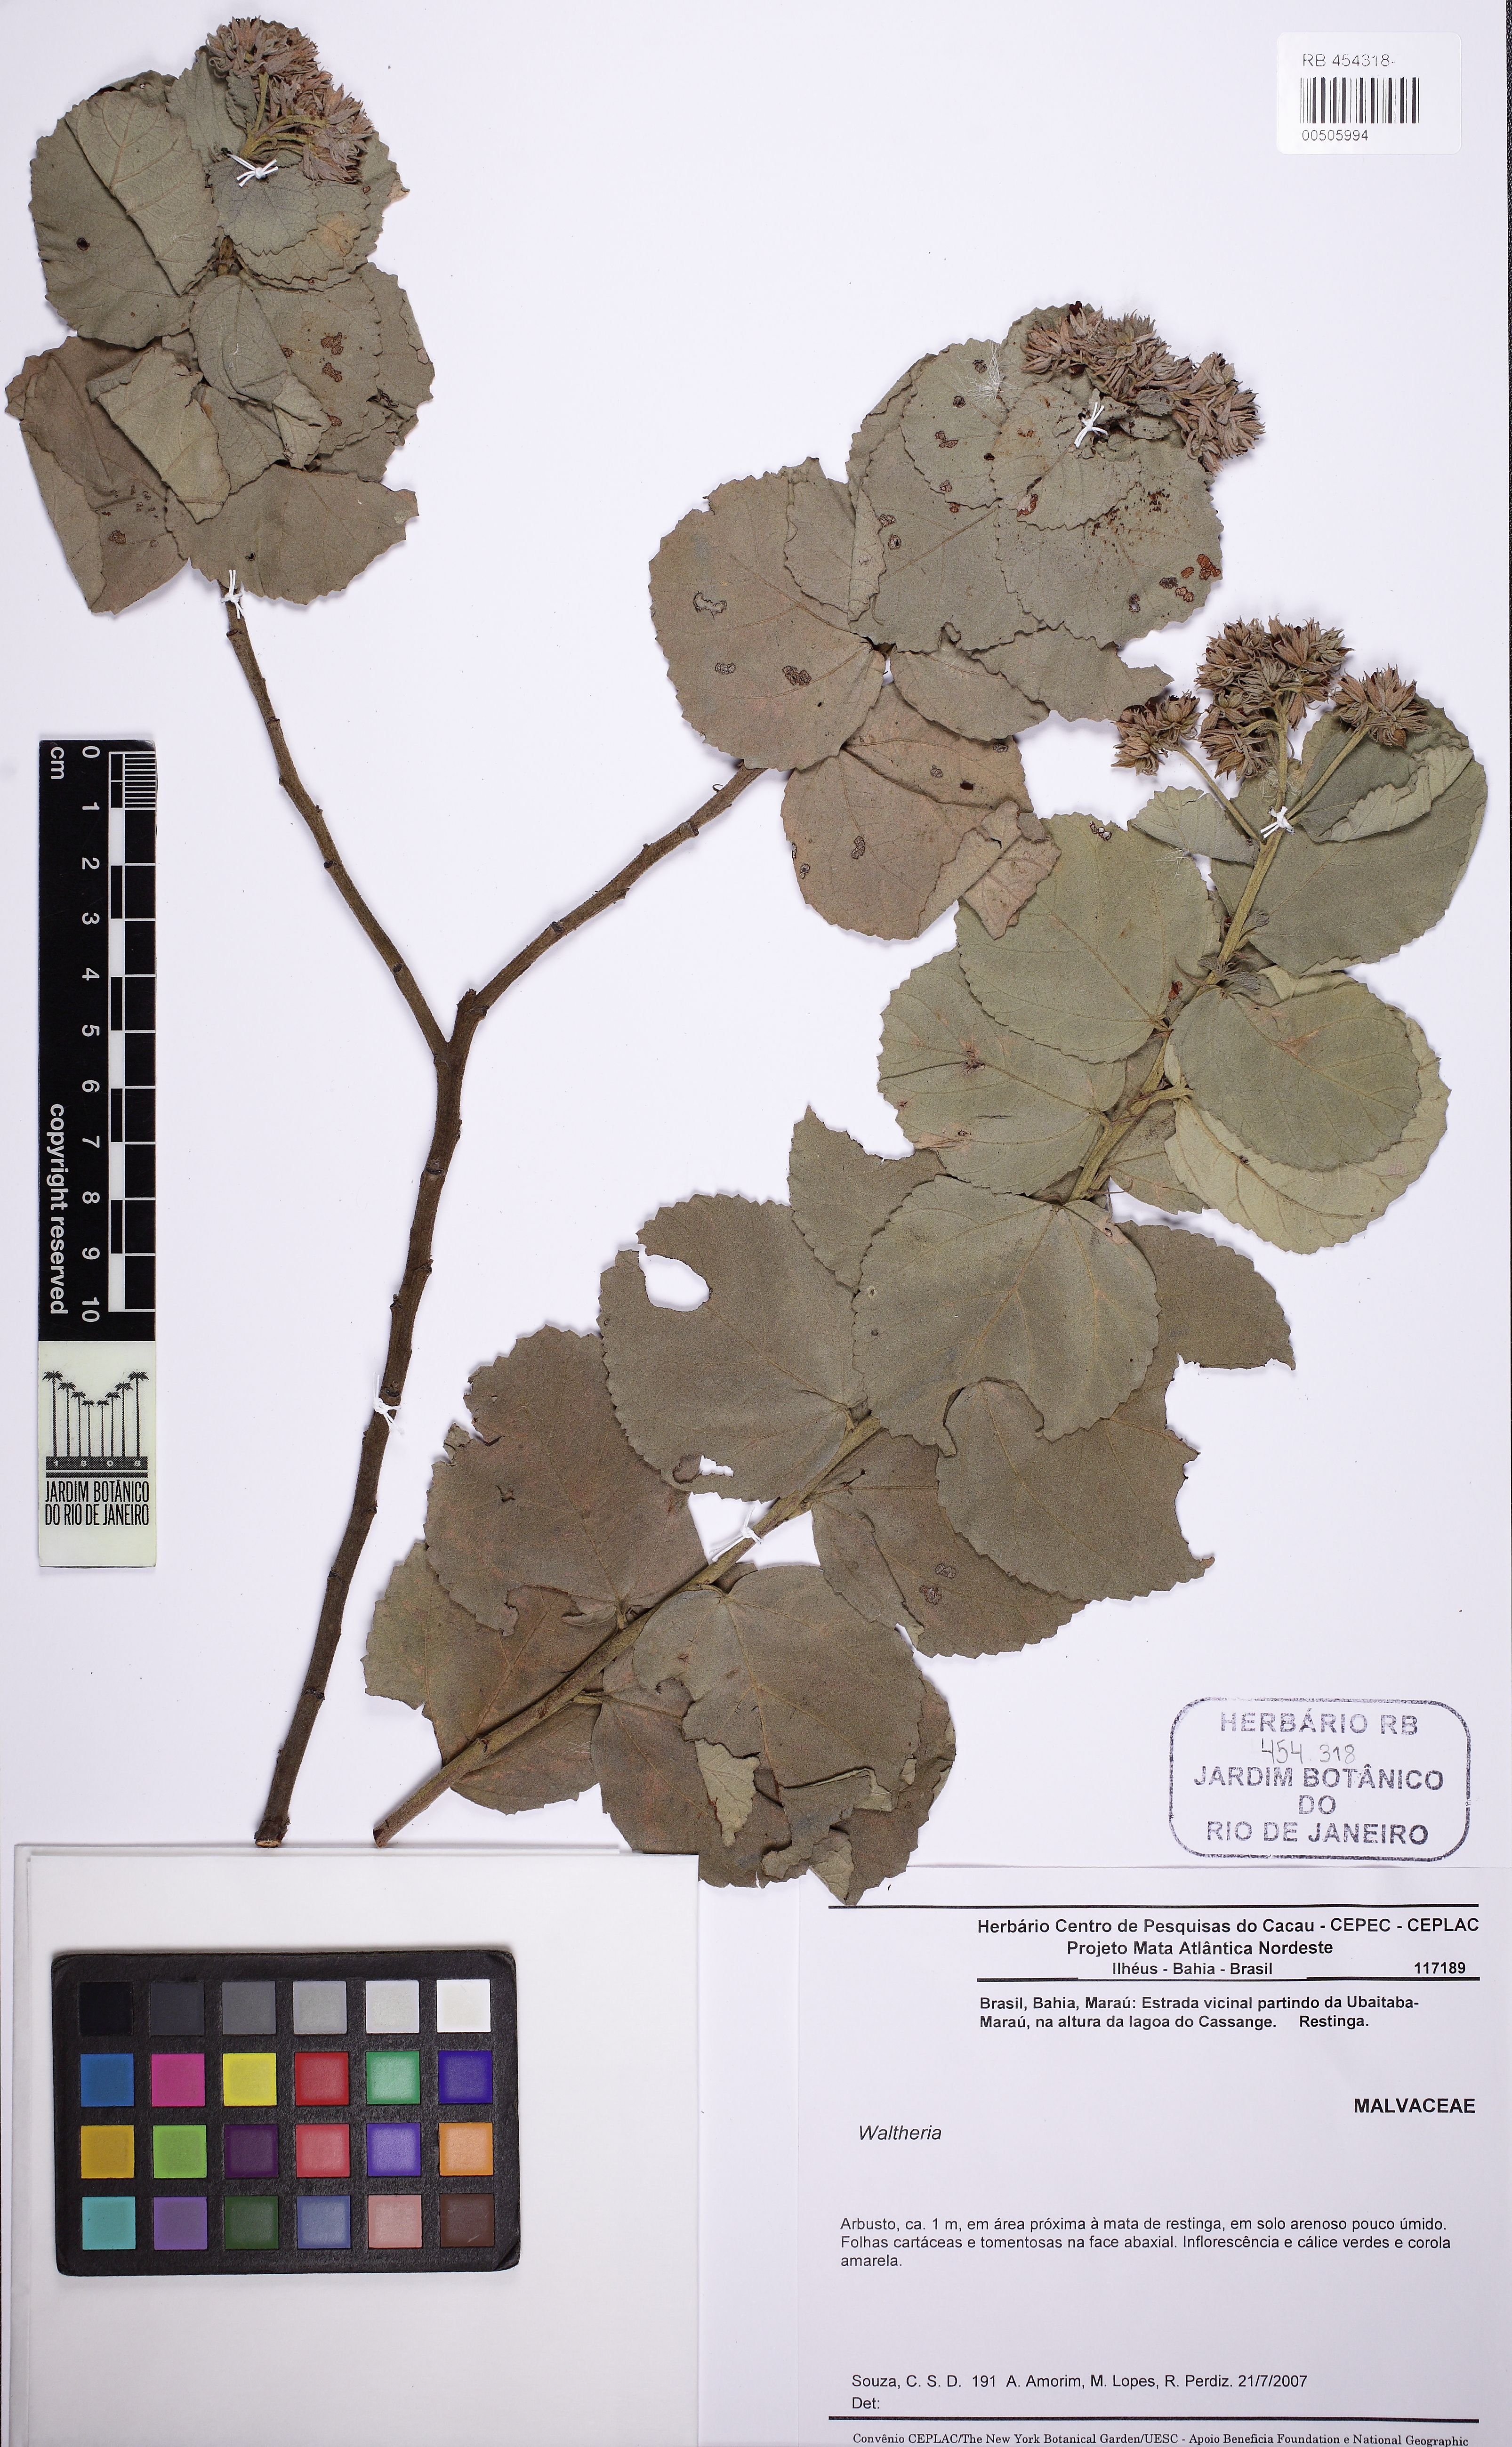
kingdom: Plantae
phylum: Tracheophyta
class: Magnoliopsida
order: Malvales
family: Malvaceae
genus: Waltheria
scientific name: Waltheria cinerescens
